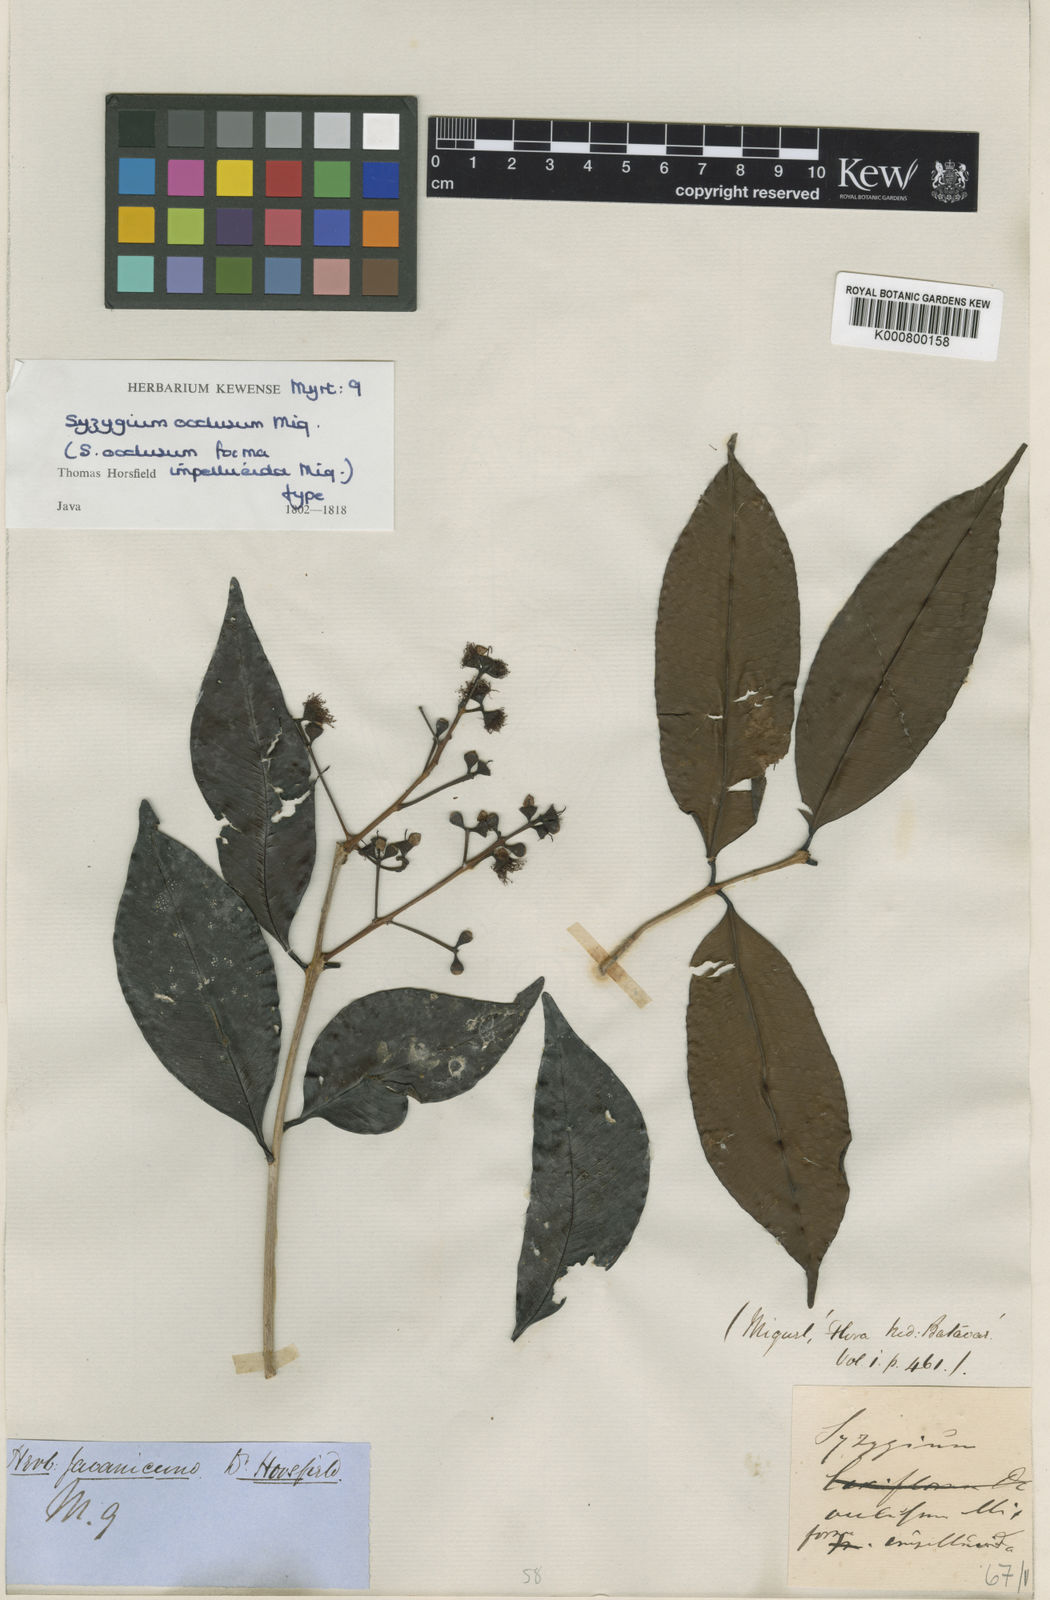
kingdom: Plantae
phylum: Tracheophyta
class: Magnoliopsida
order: Myrtales
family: Myrtaceae
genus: Syzygium
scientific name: Syzygium occlusum
